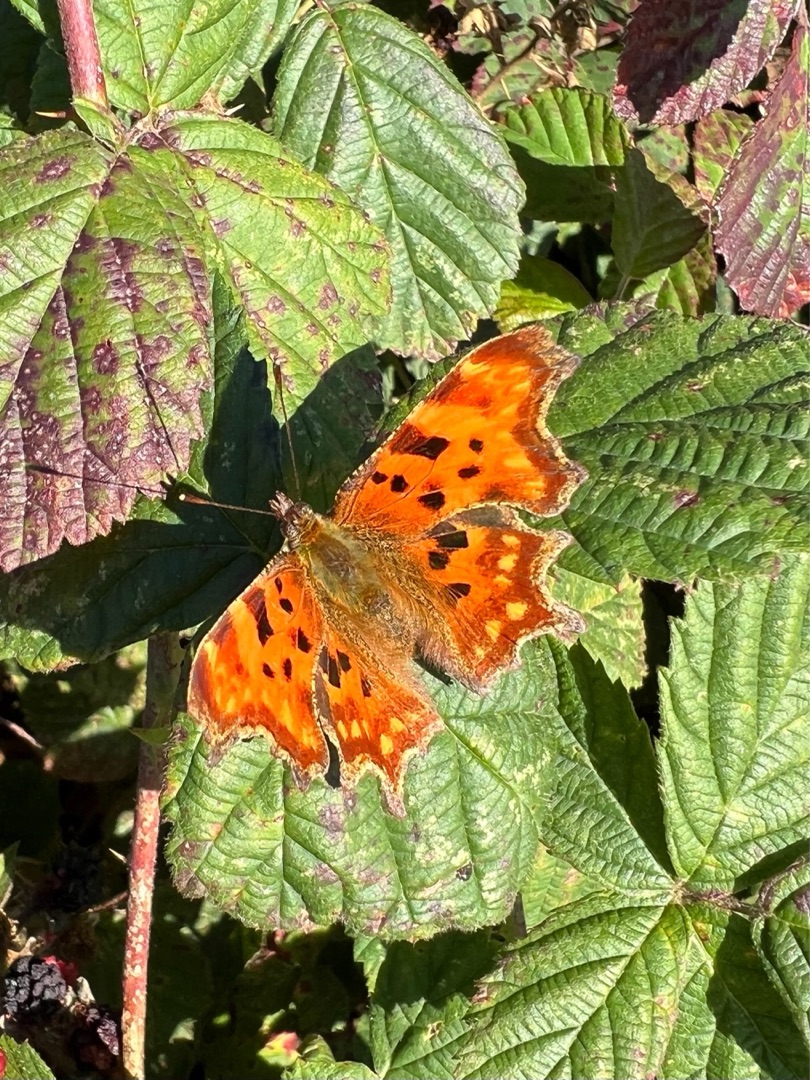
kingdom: Animalia
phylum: Arthropoda
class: Insecta
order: Lepidoptera
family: Nymphalidae
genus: Polygonia
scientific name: Polygonia c-album
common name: Det hvide C
